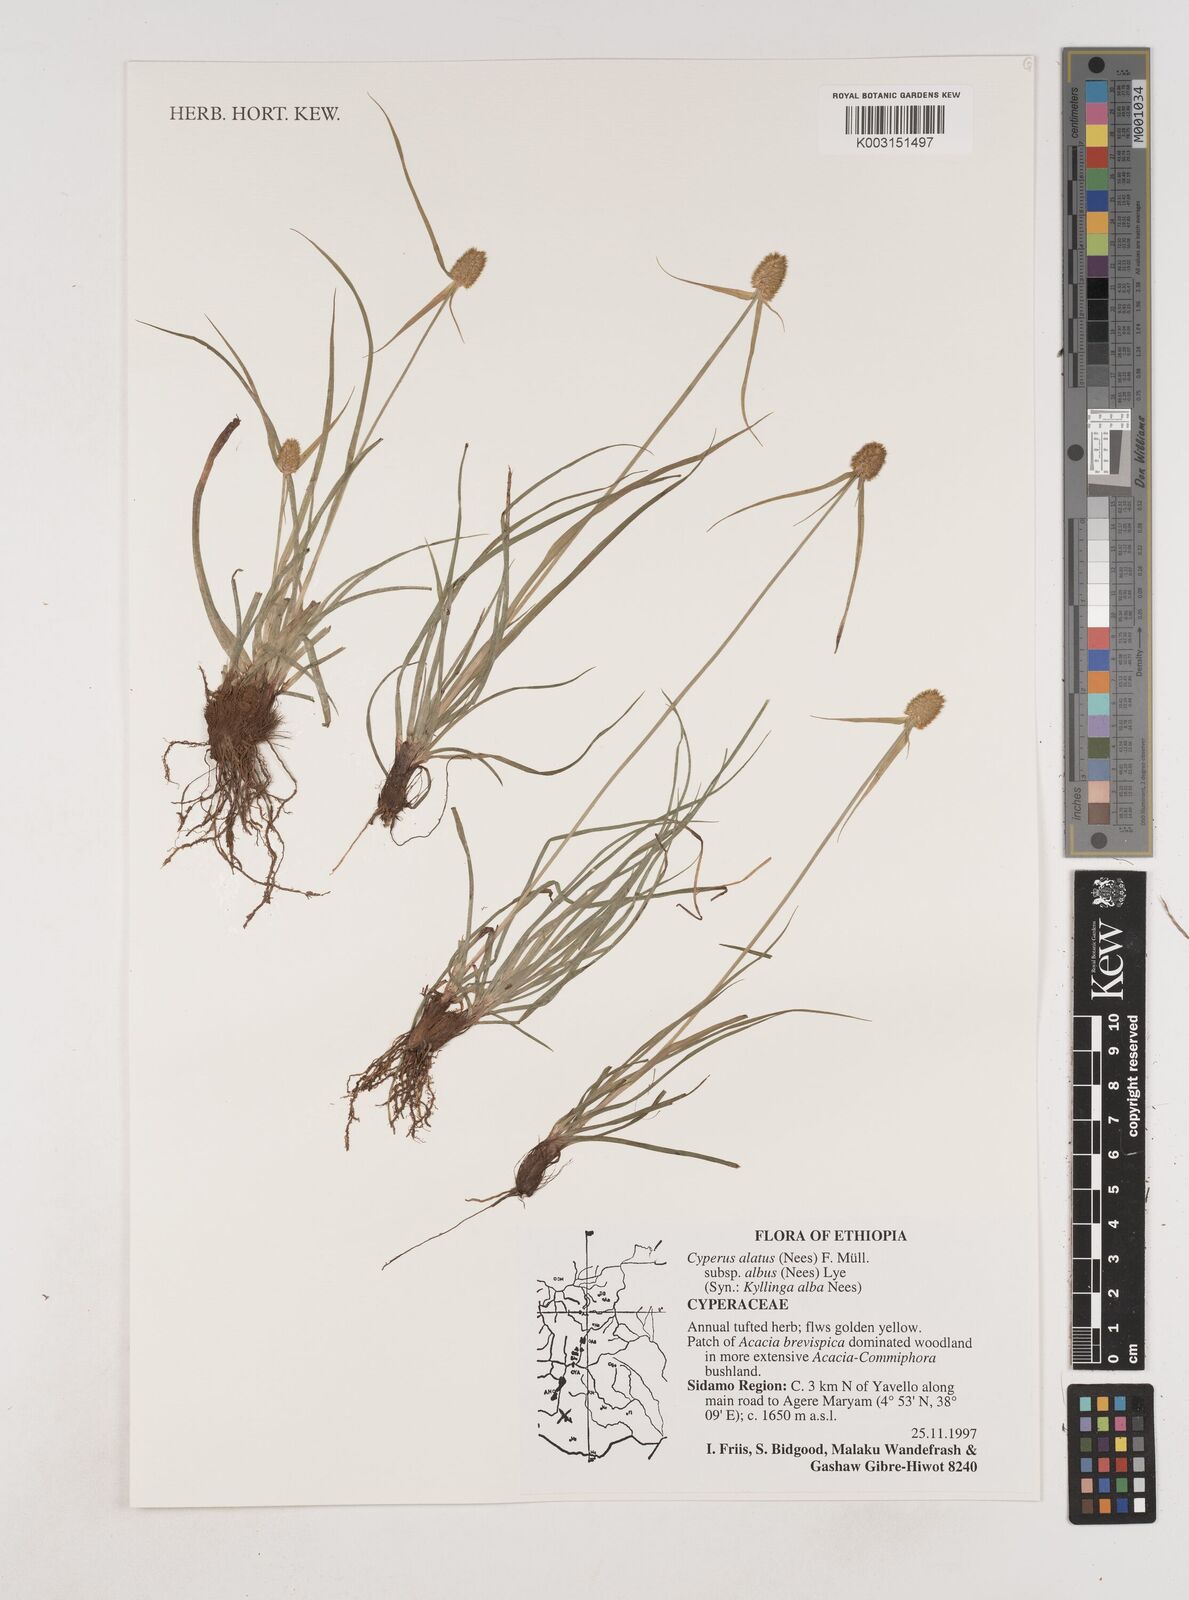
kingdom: Plantae
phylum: Tracheophyta
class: Liliopsida
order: Poales
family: Cyperaceae
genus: Cyperus
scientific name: Cyperus alatus
